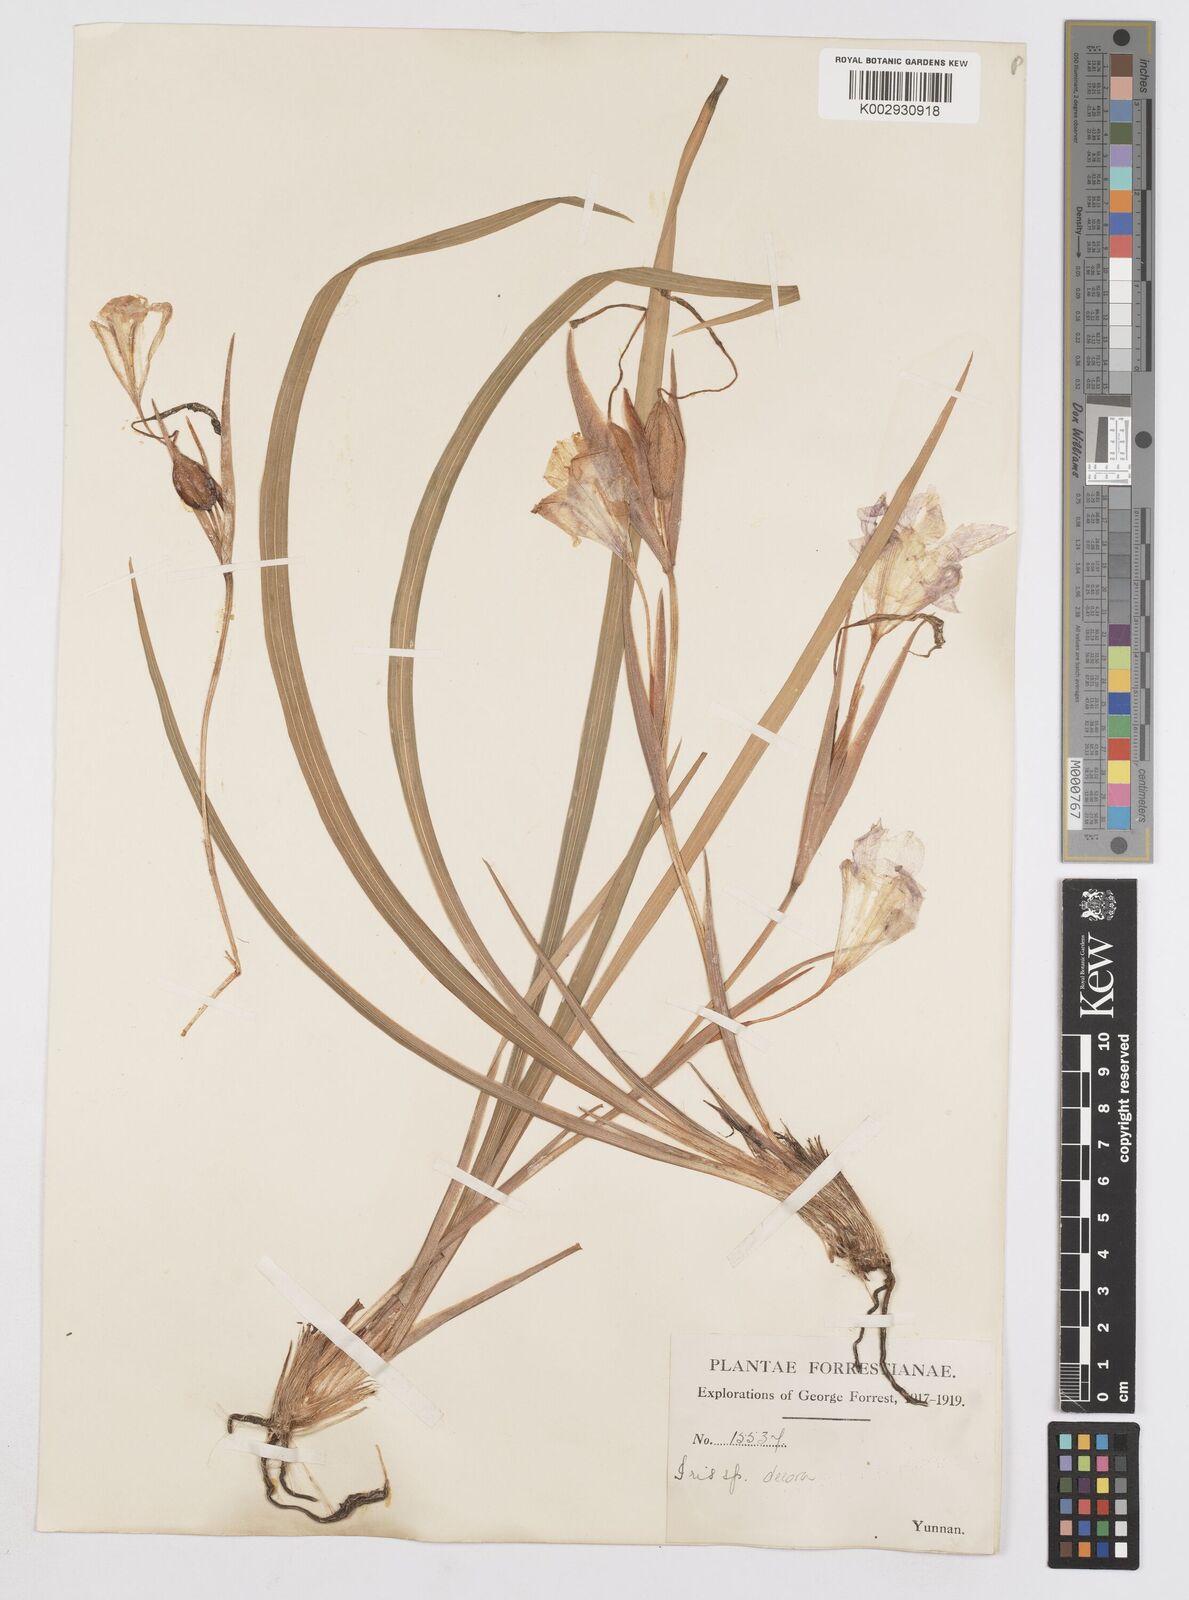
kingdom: Plantae
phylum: Tracheophyta
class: Liliopsida
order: Asparagales
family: Iridaceae
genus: Iris
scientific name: Iris decora
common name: Nepal iris
